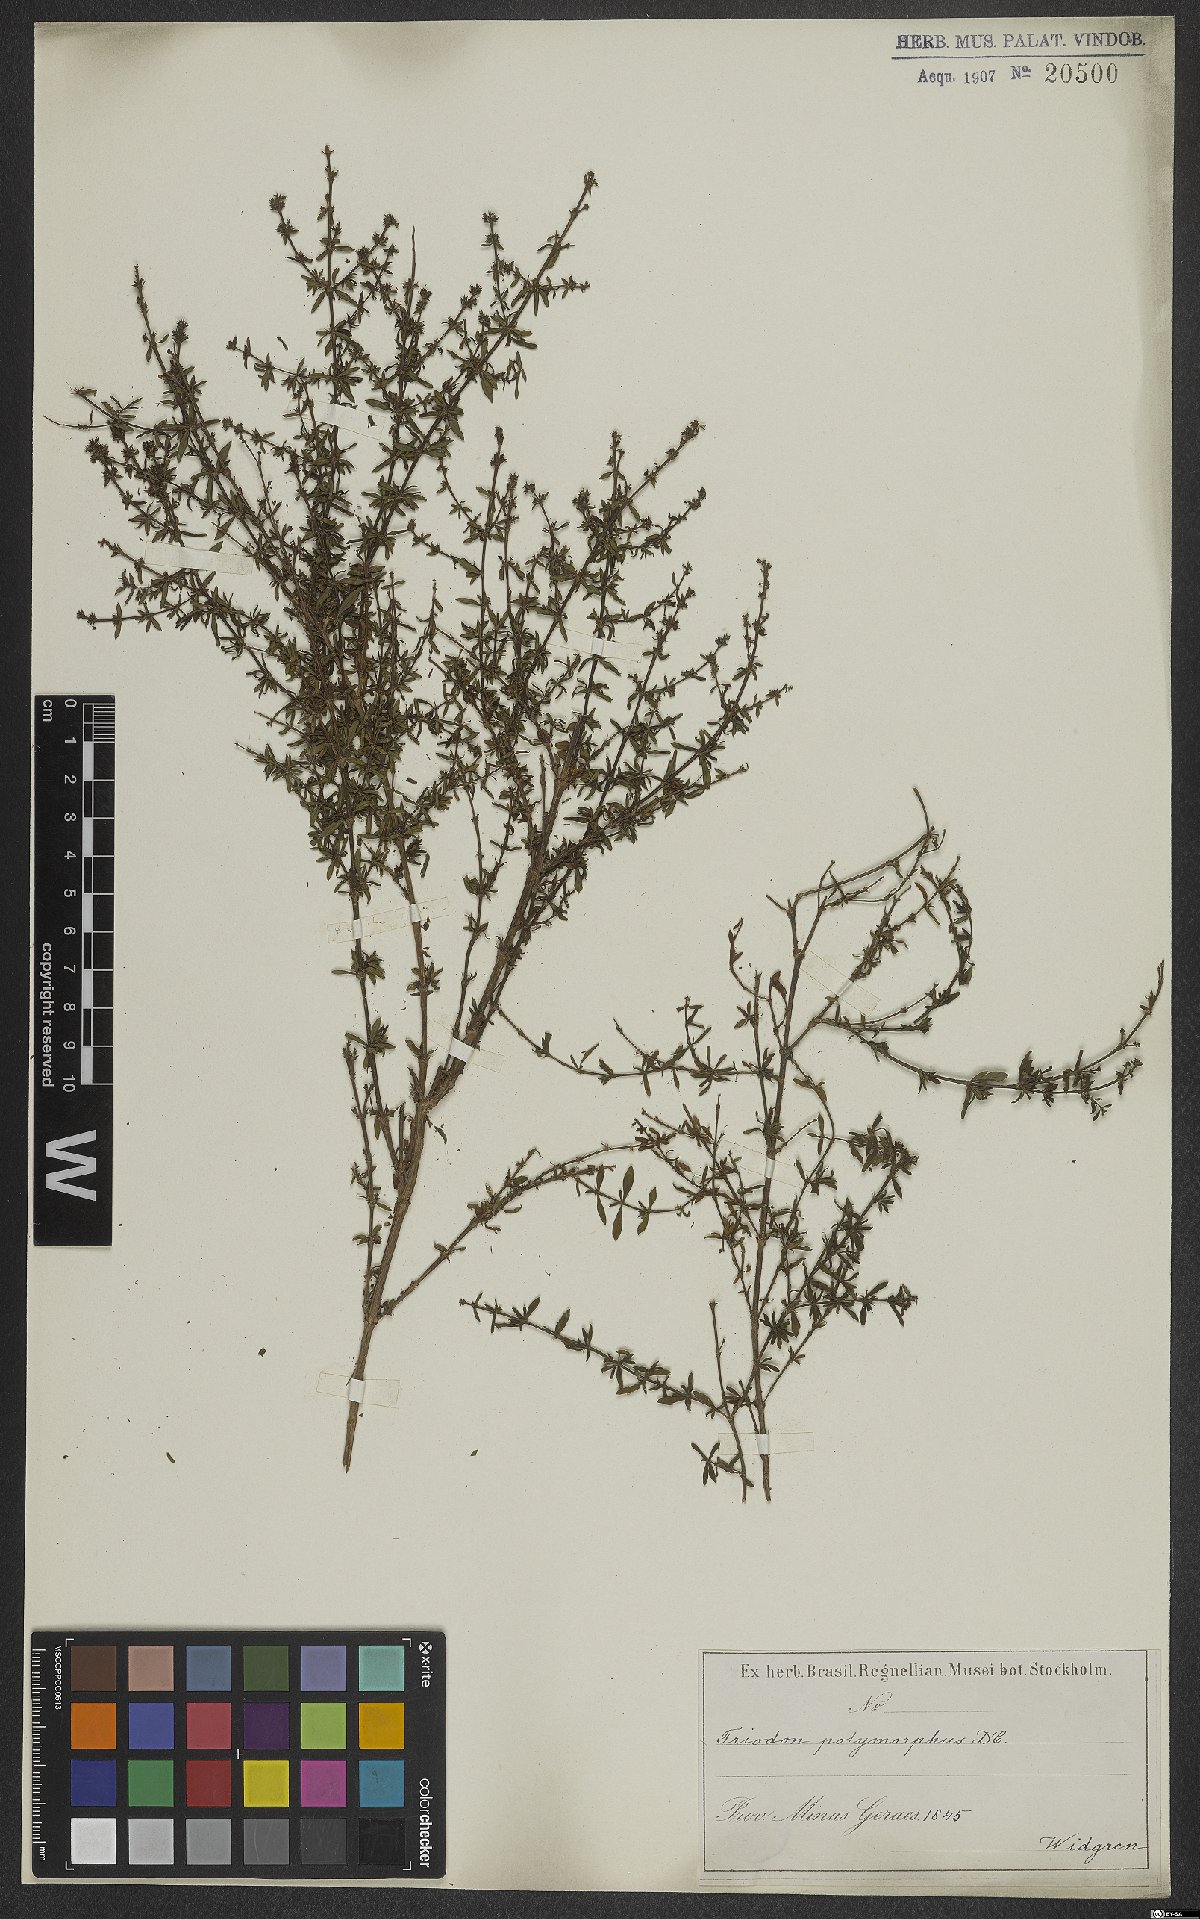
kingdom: Plantae
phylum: Tracheophyta
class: Magnoliopsida
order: Gentianales
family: Rubiaceae
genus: Galianthe
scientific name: Galianthe brasiliensis
